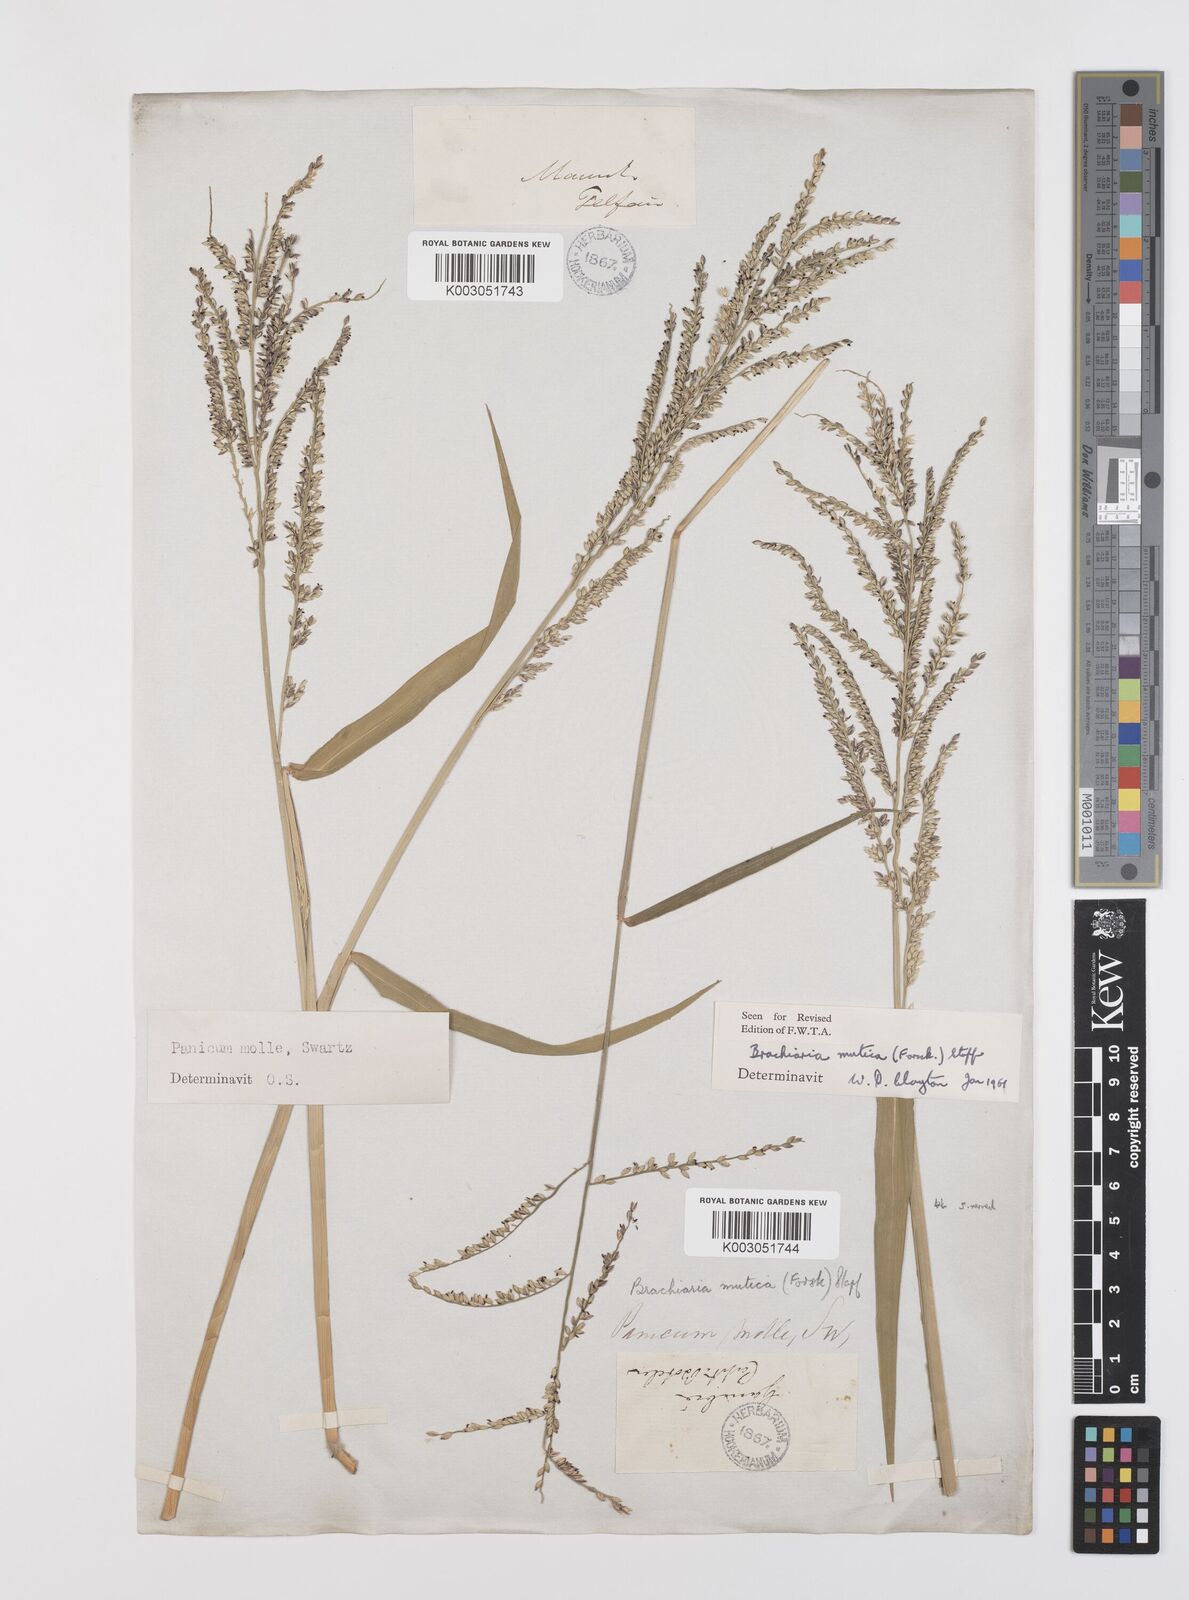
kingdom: Plantae
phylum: Tracheophyta
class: Liliopsida
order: Poales
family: Poaceae
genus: Urochloa
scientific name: Urochloa mutica
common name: Para grass
